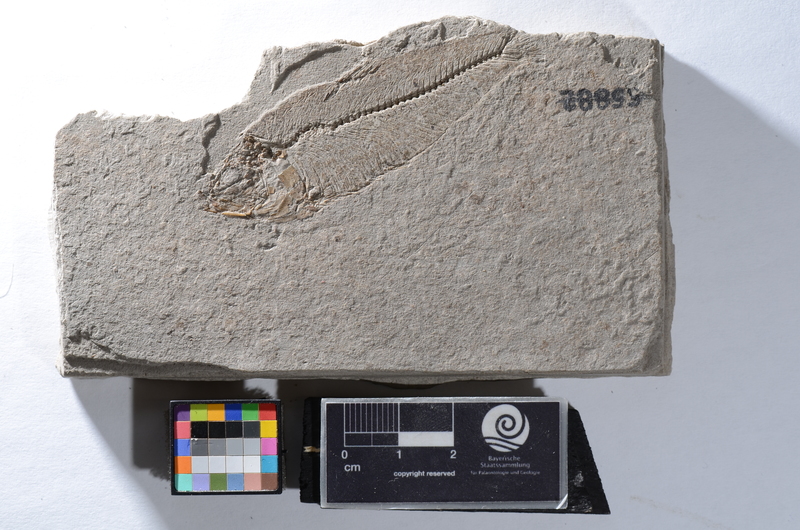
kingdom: Animalia
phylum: Chordata
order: Clupeiformes
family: Clupeidae
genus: Sprattus
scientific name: Sprattus
